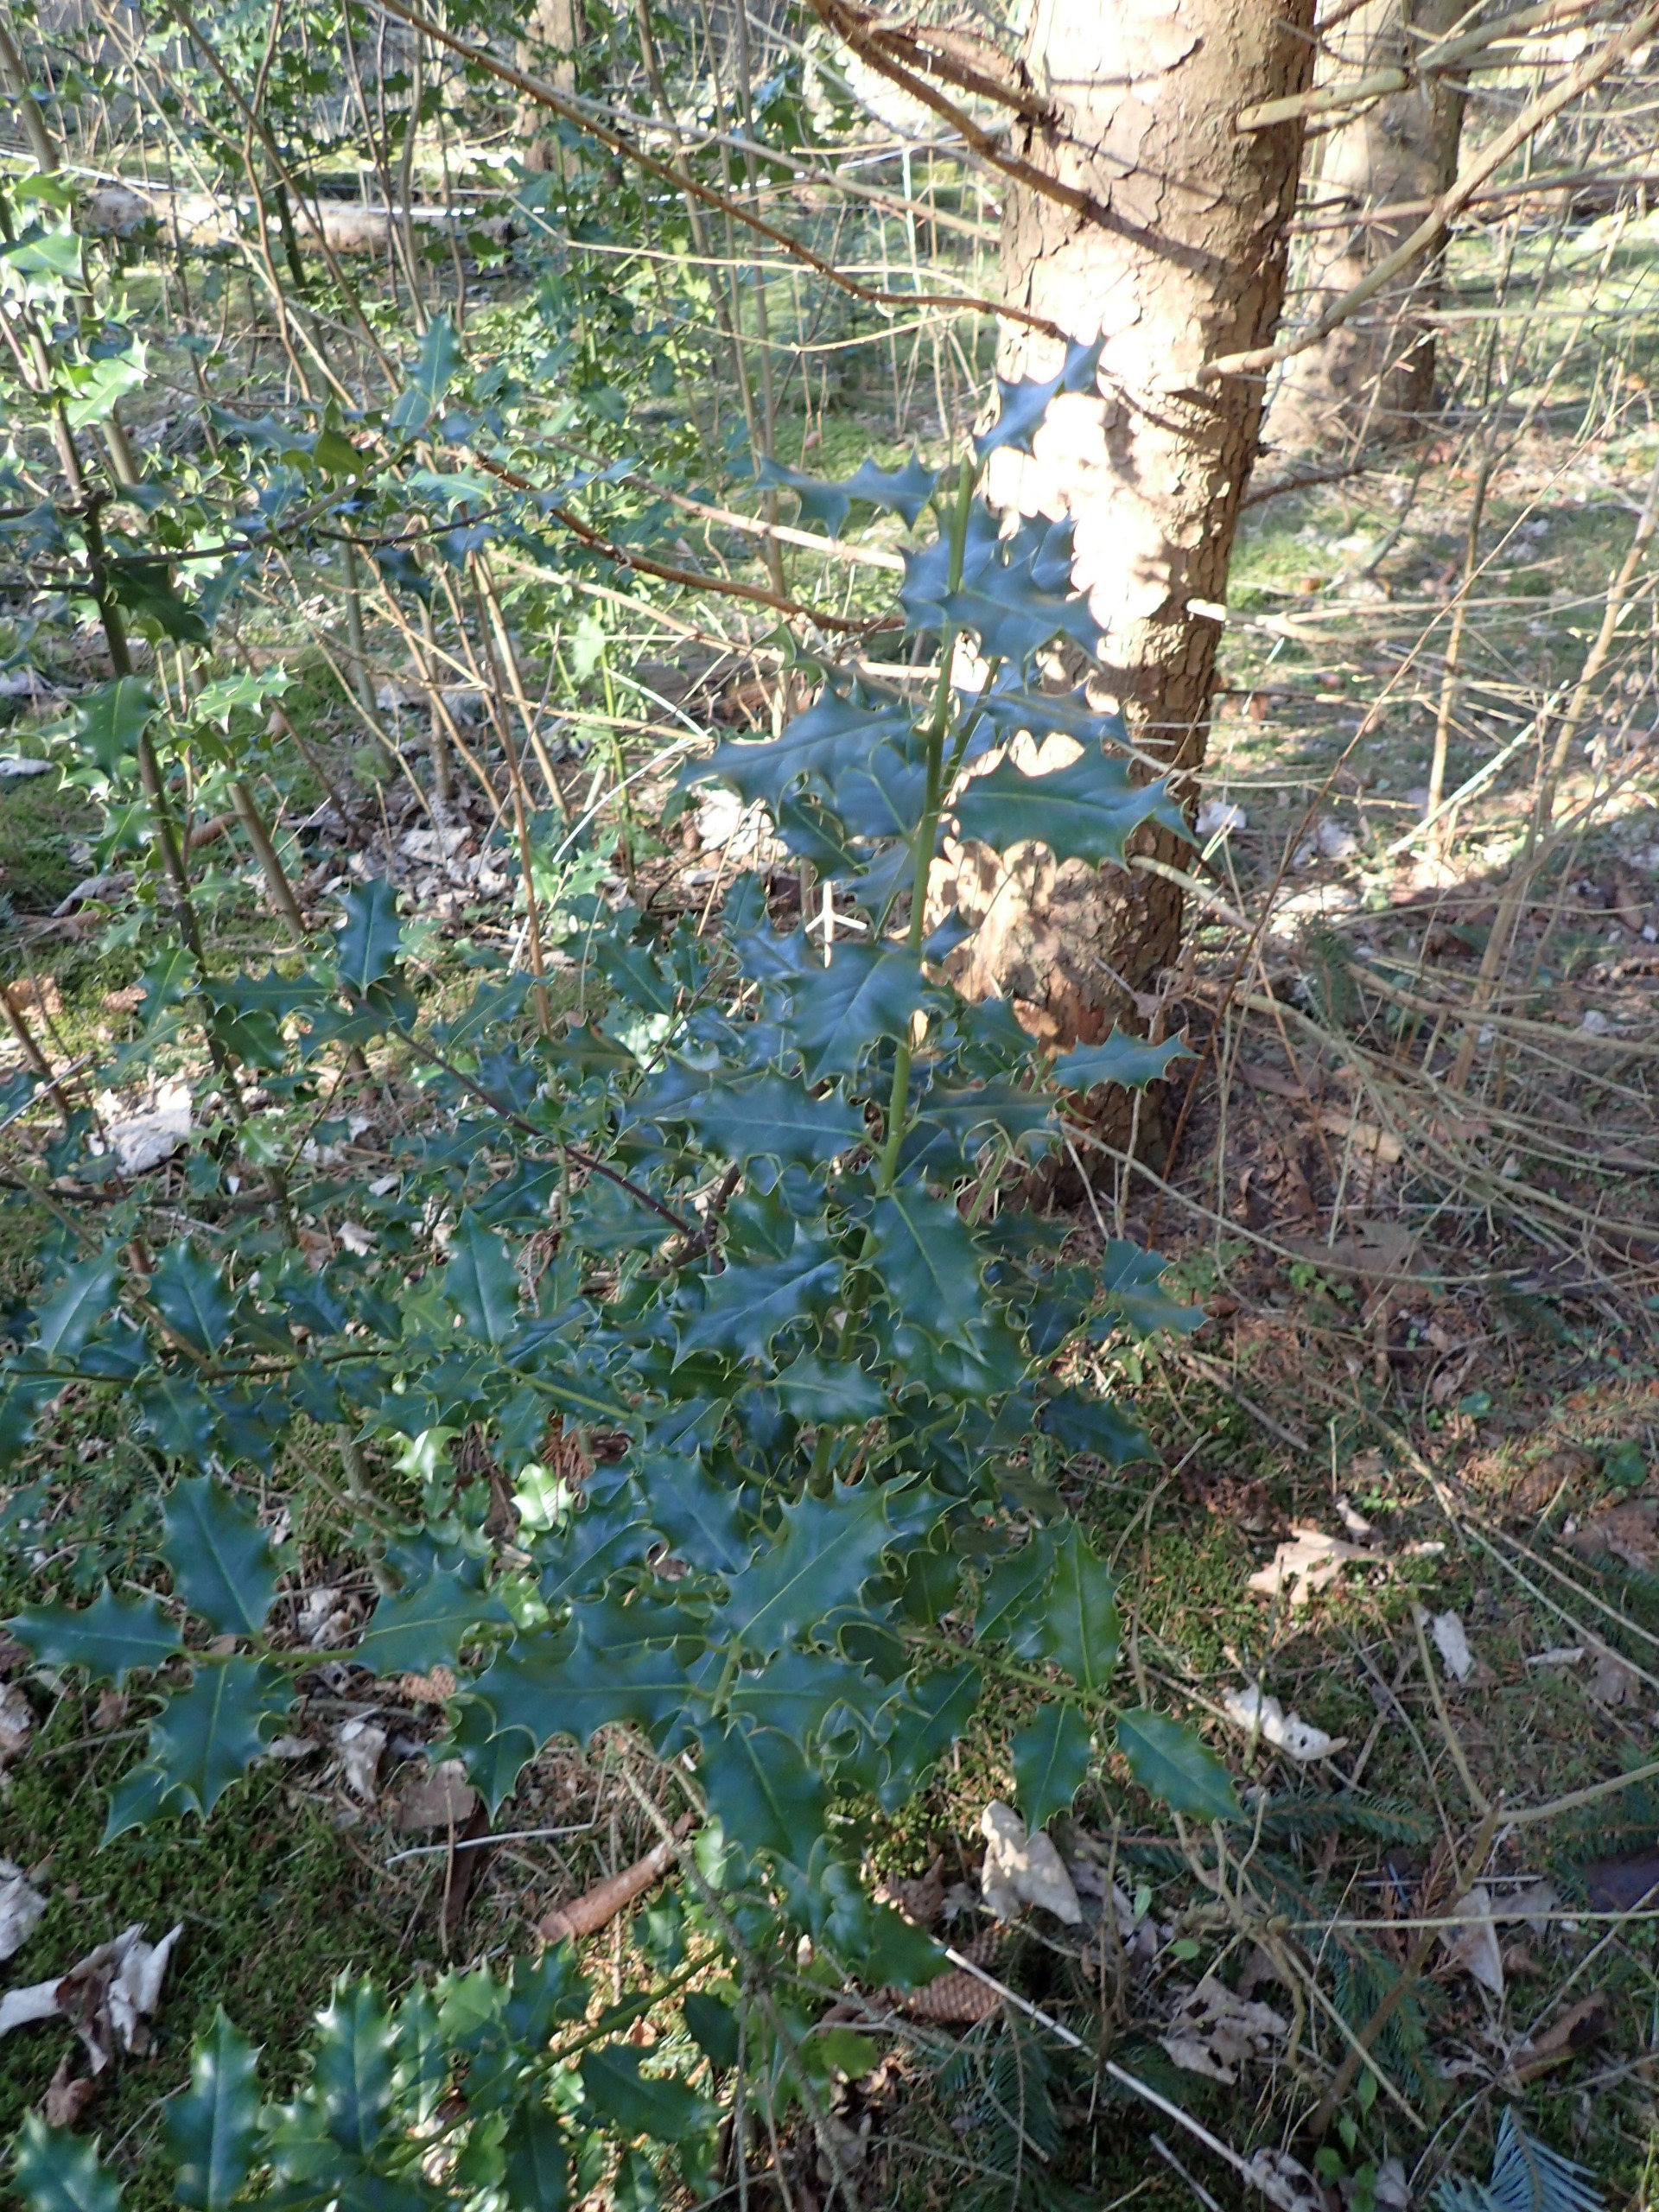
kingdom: Plantae
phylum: Tracheophyta
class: Magnoliopsida
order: Aquifoliales
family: Aquifoliaceae
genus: Ilex
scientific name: Ilex aquifolium
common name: Kristtorn
